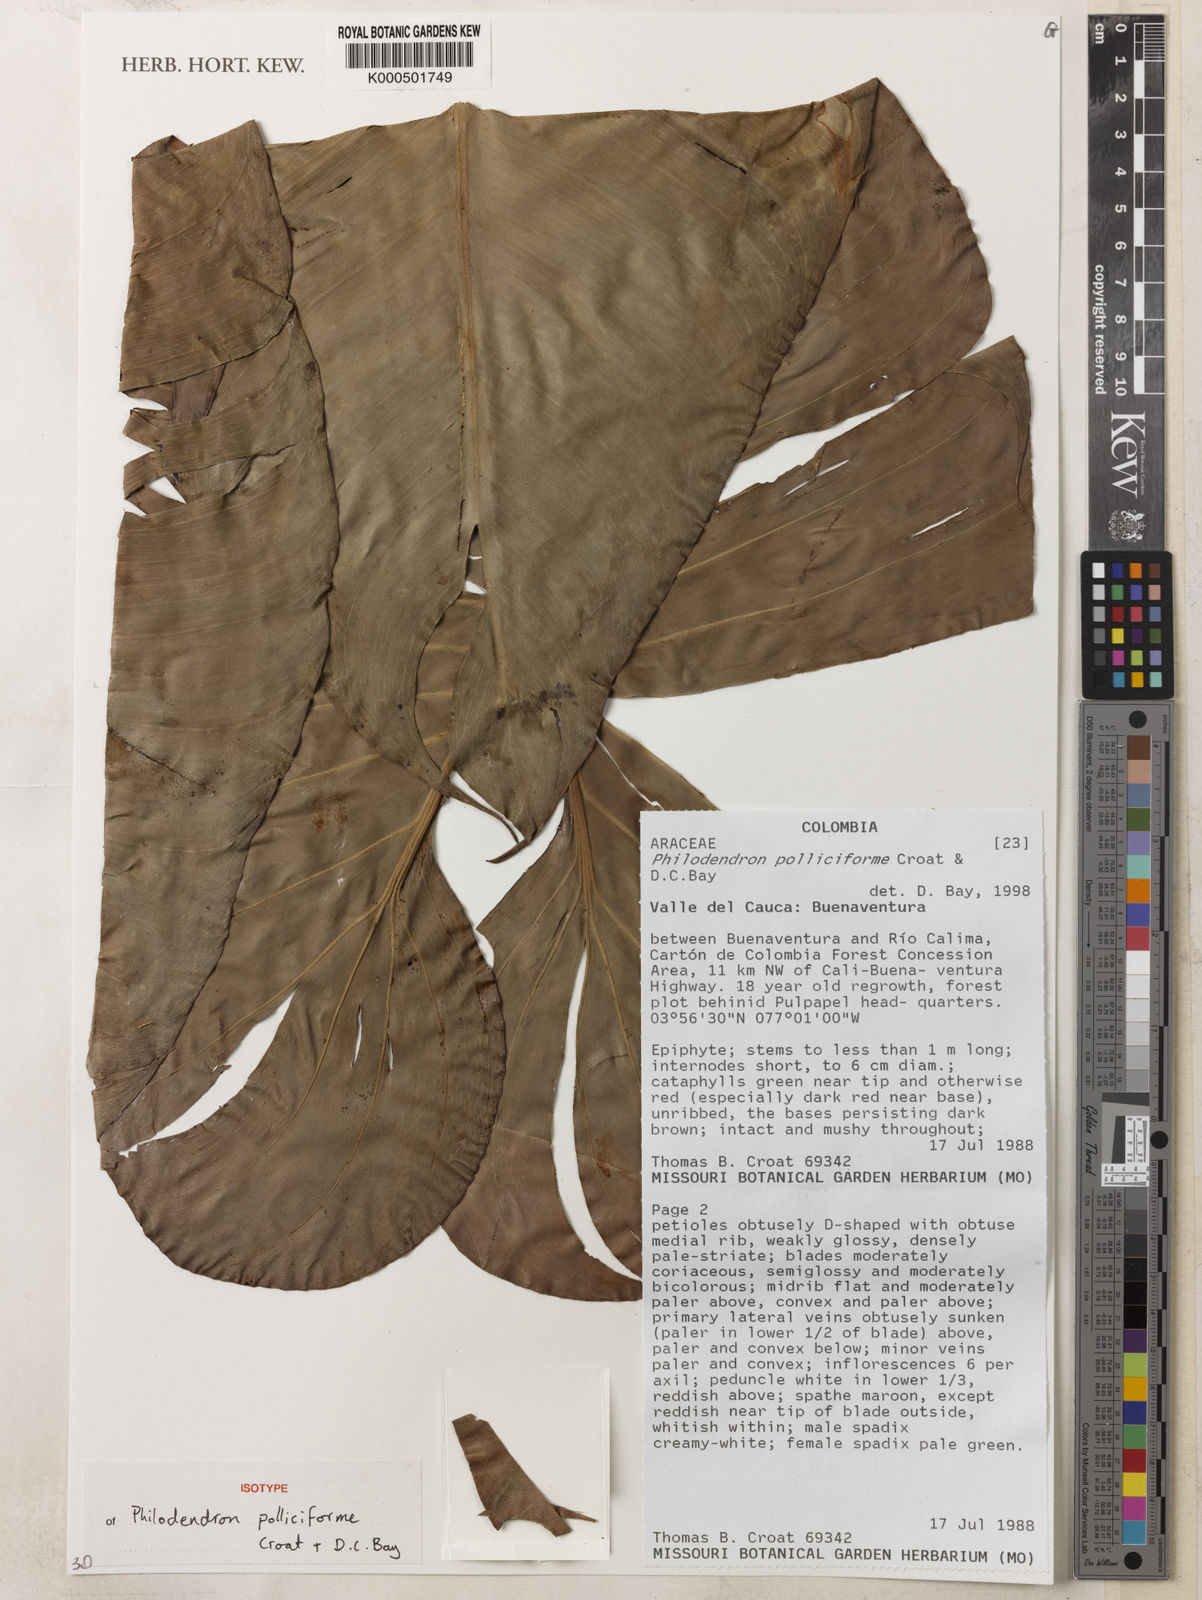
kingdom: Plantae
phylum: Tracheophyta
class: Liliopsida
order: Alismatales
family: Araceae
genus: Philodendron
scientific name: Philodendron polliciforme
